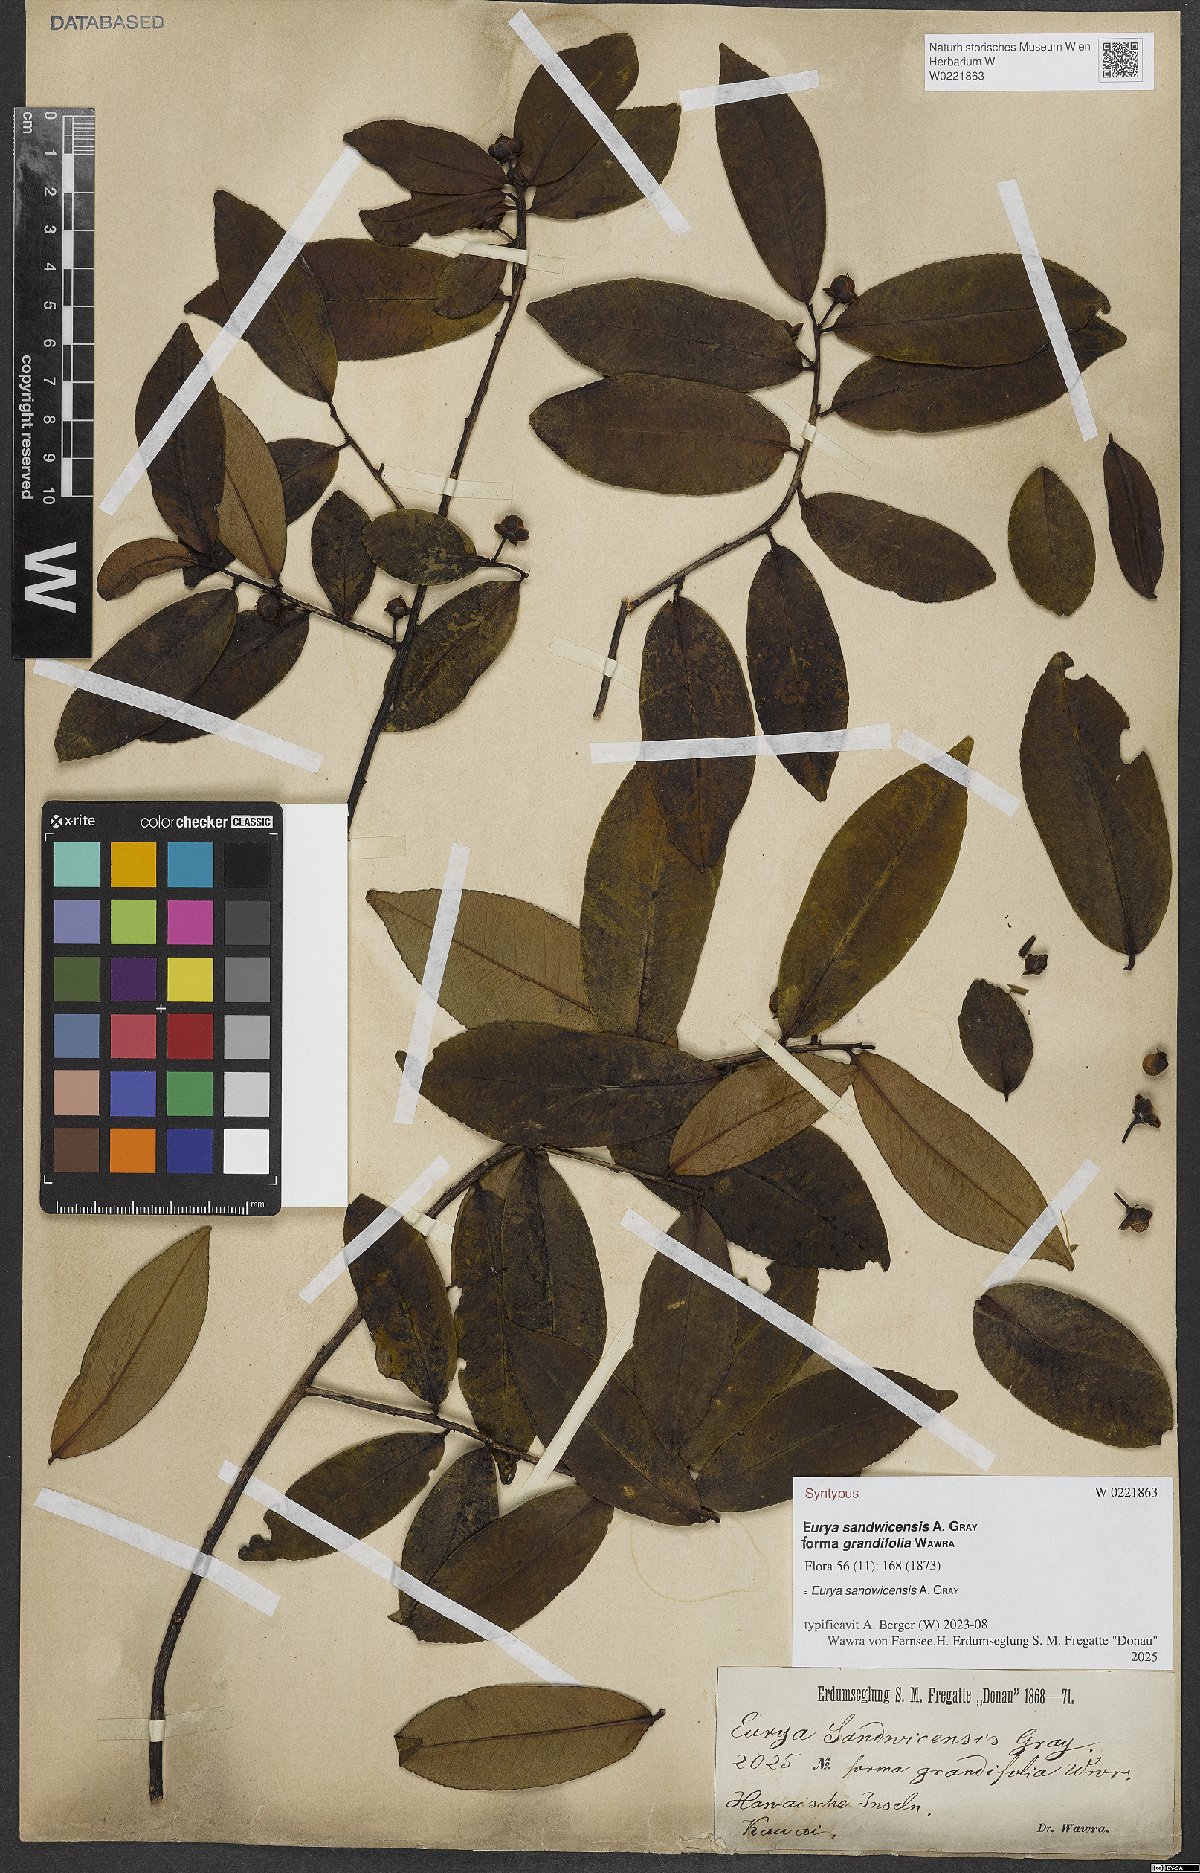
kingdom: Plantae
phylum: Tracheophyta
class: Magnoliopsida
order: Ericales
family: Pentaphylacaceae
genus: Eurya
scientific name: Eurya sandwicensis
